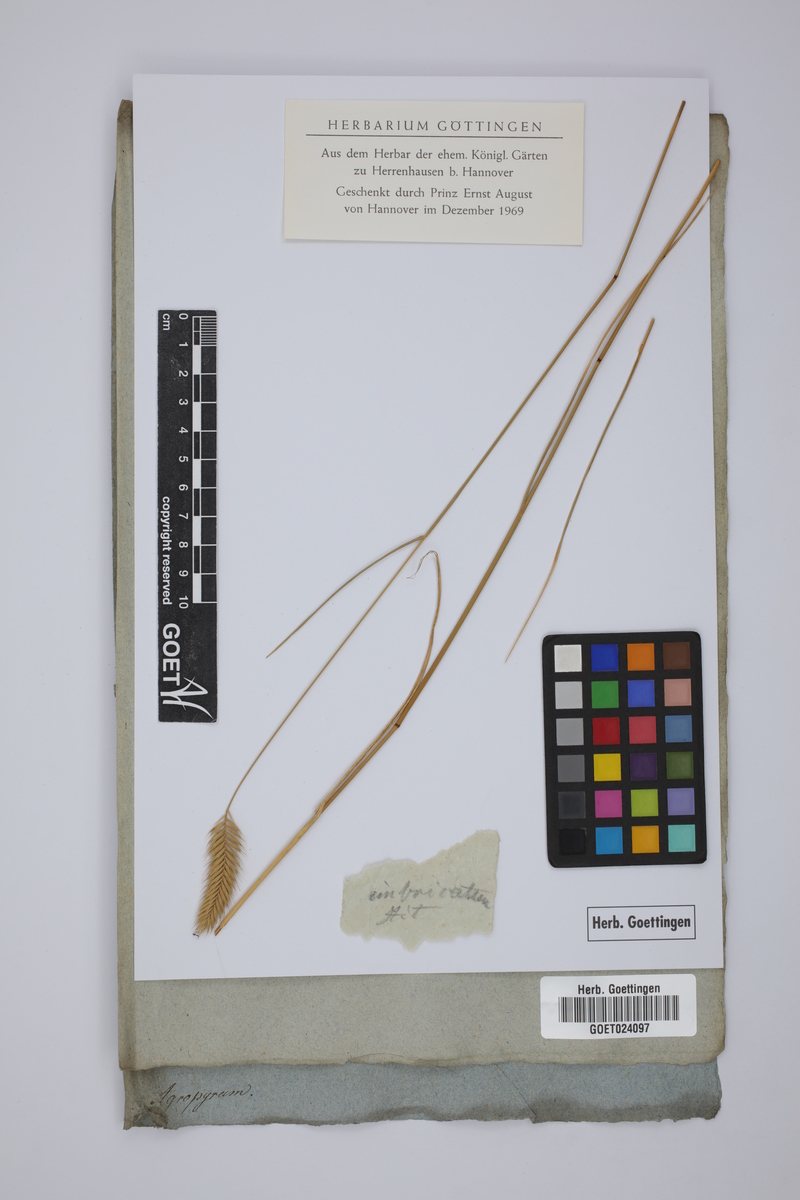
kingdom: Plantae
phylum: Tracheophyta
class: Liliopsida
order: Poales
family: Poaceae
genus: Agropyron
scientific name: Agropyron cristatum
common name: Crested wheatgrass
